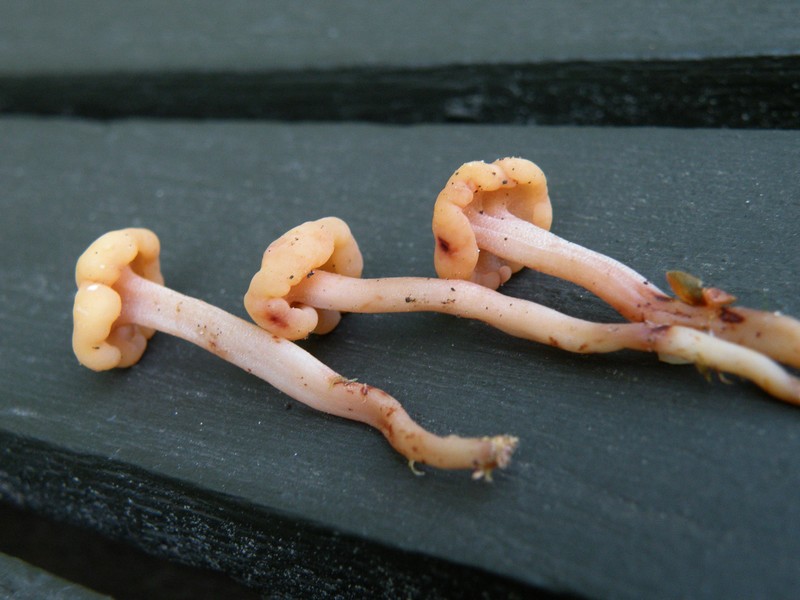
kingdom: Fungi
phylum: Ascomycota
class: Leotiomycetes
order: Rhytismatales
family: Cudoniaceae
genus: Cudonia
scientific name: Cudonia circinans
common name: hekserings-hjelmmorkel
